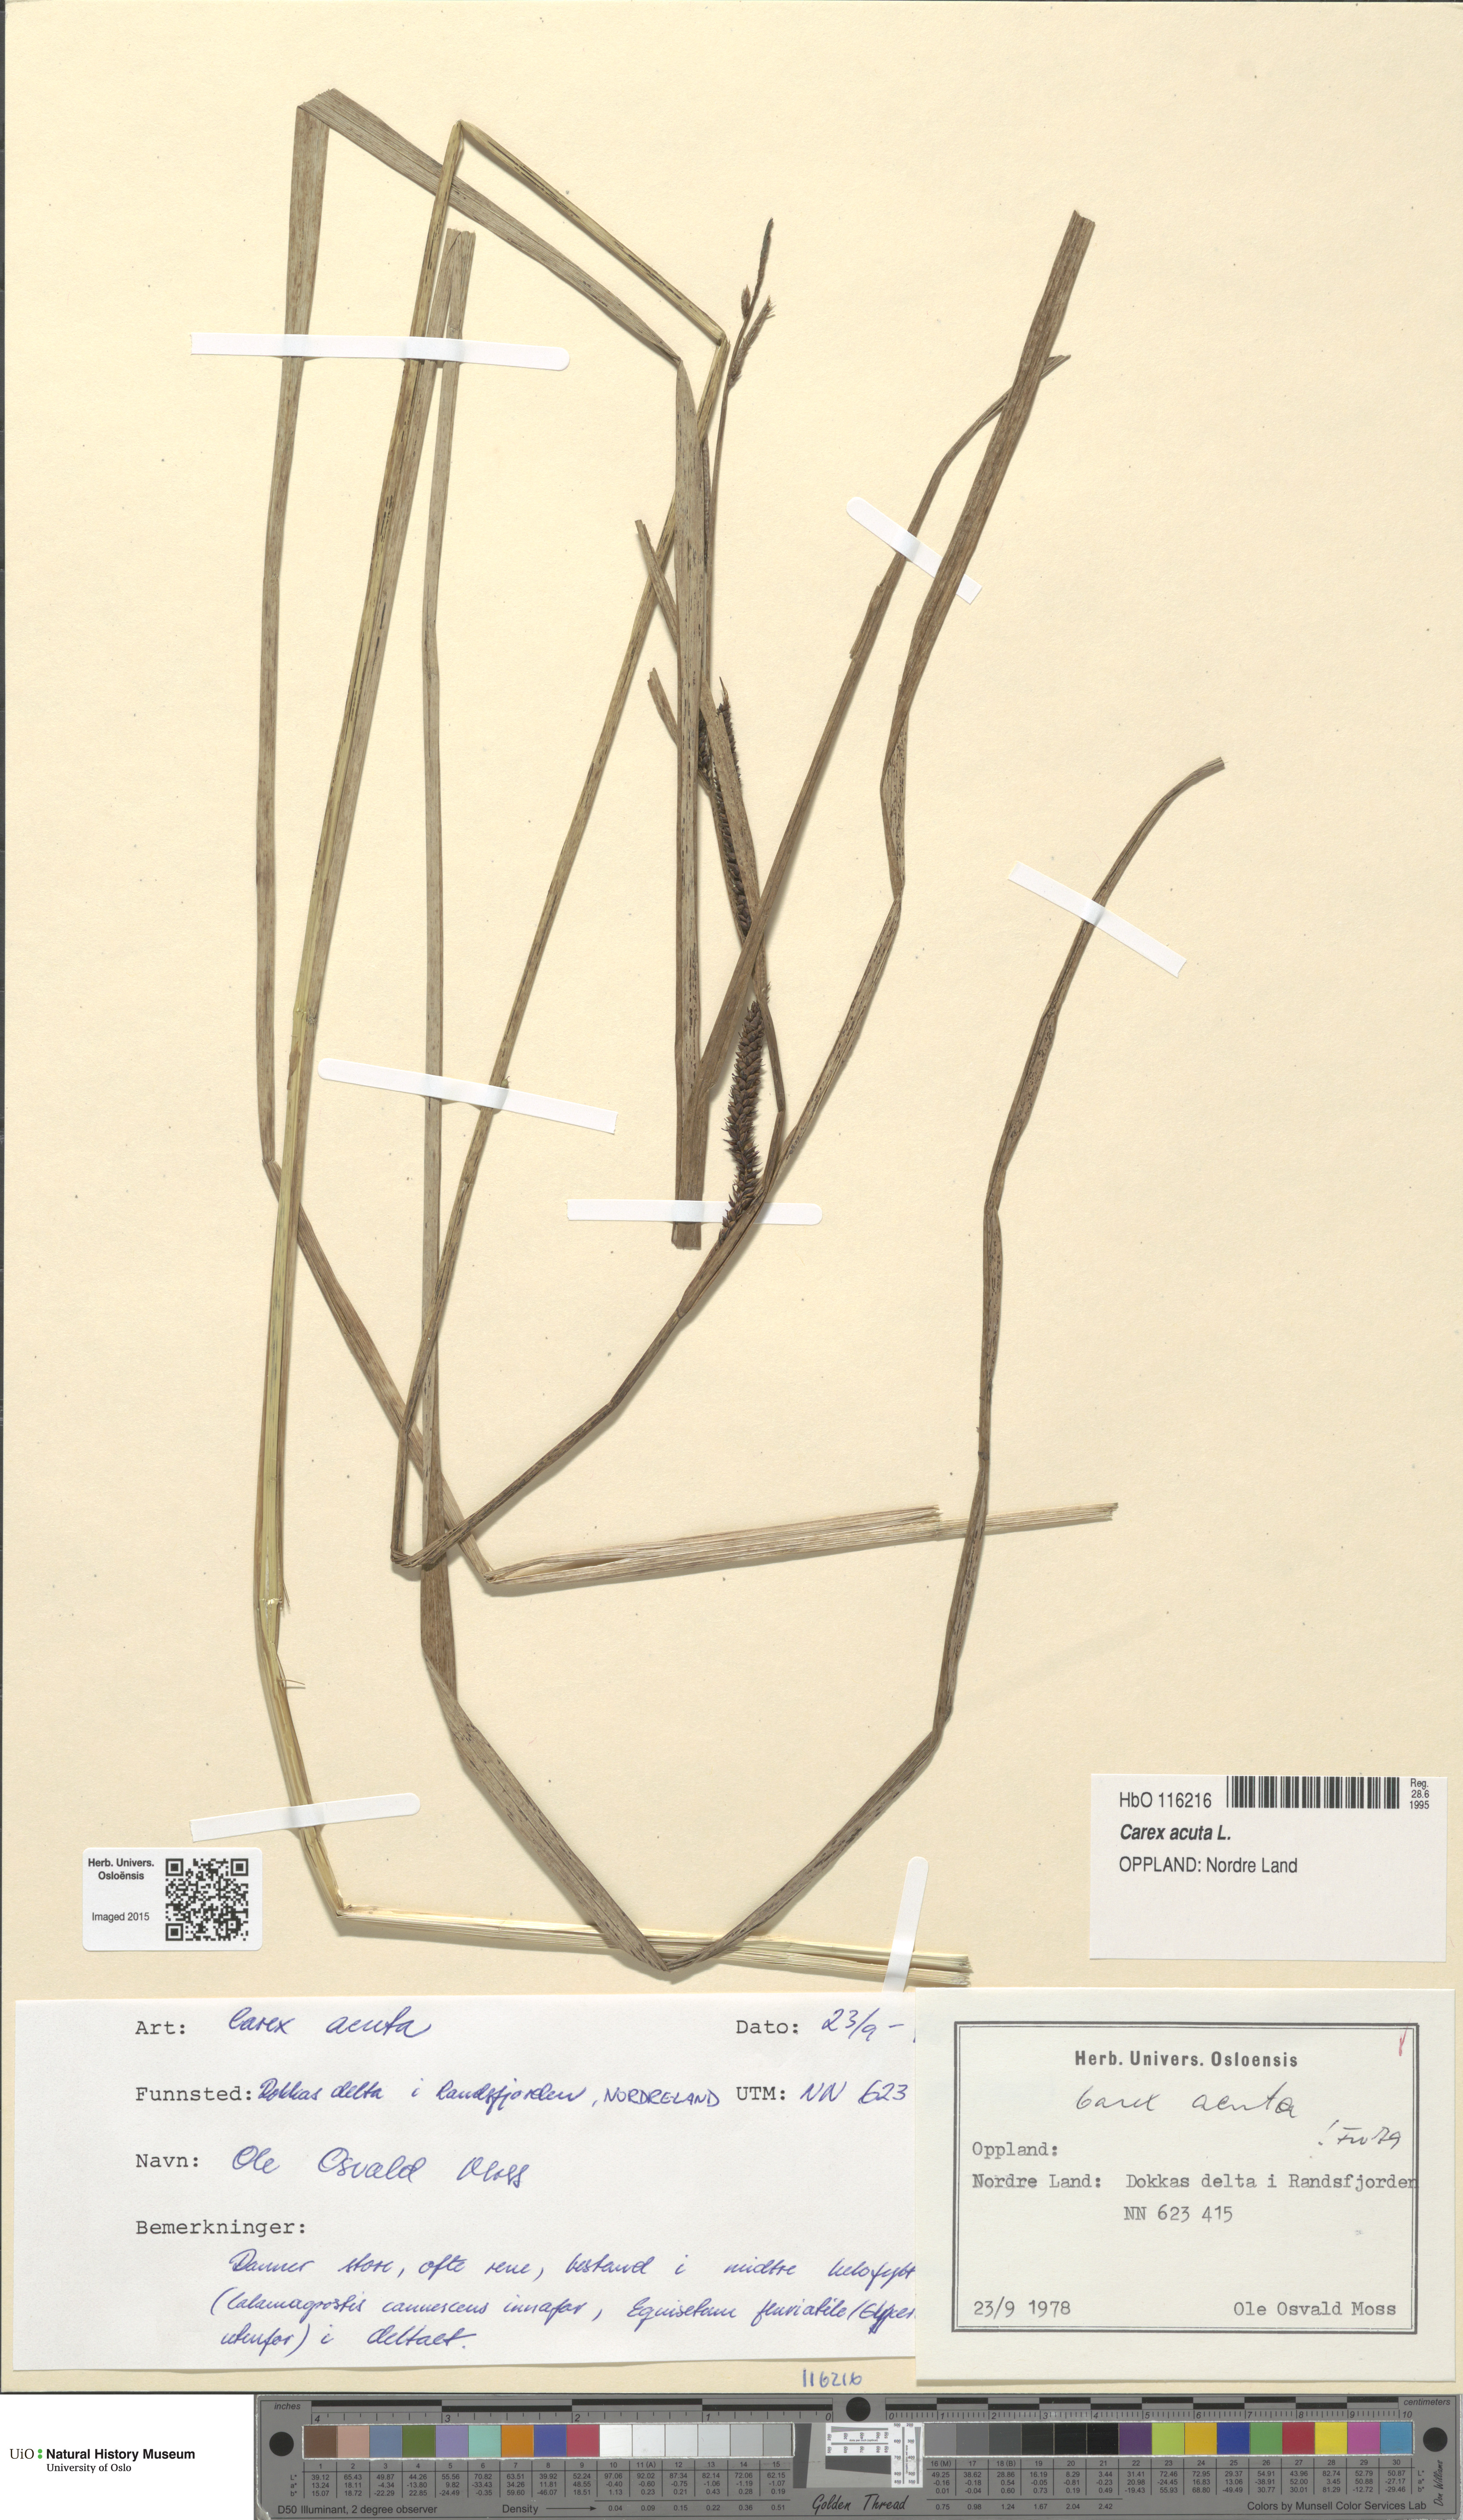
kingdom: Plantae
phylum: Tracheophyta
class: Liliopsida
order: Poales
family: Cyperaceae
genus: Carex
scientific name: Carex acuta
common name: Slender tufted-sedge
